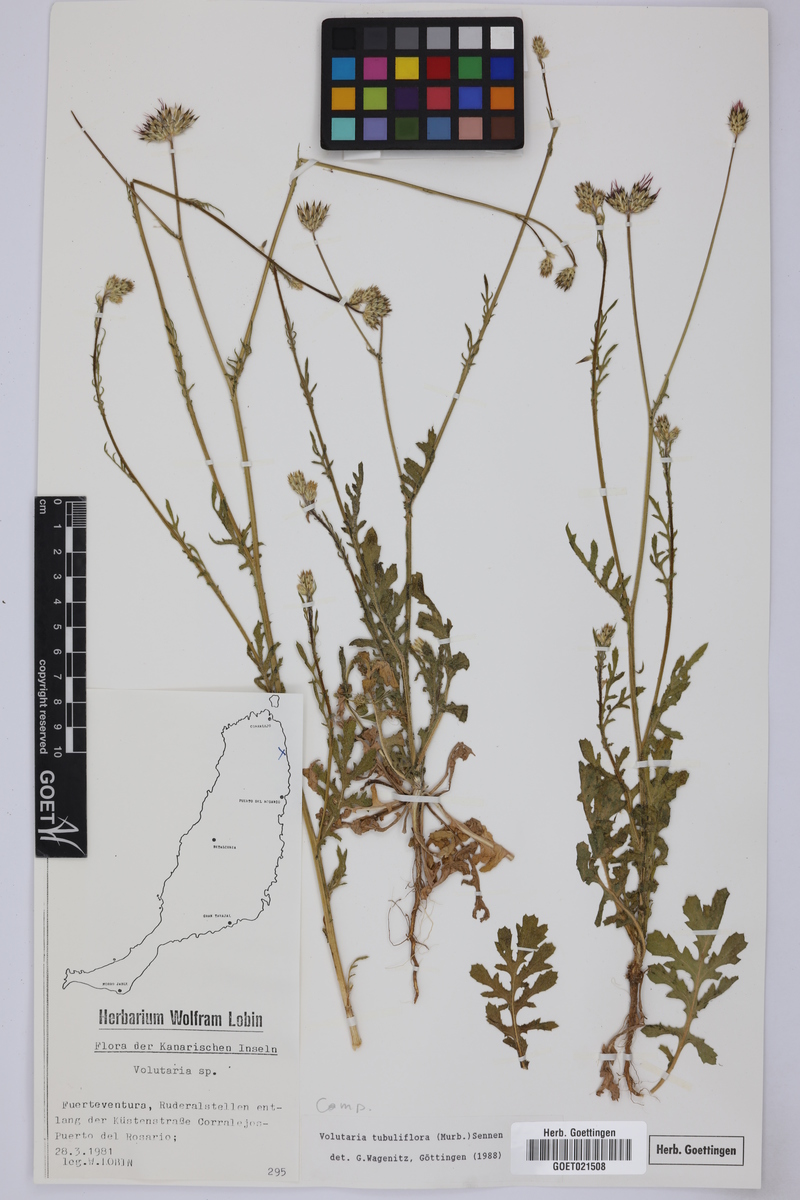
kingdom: Plantae
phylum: Tracheophyta
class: Magnoliopsida
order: Asterales
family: Asteraceae
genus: Volutaria
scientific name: Volutaria tubuliflora
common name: Desert knapweed
